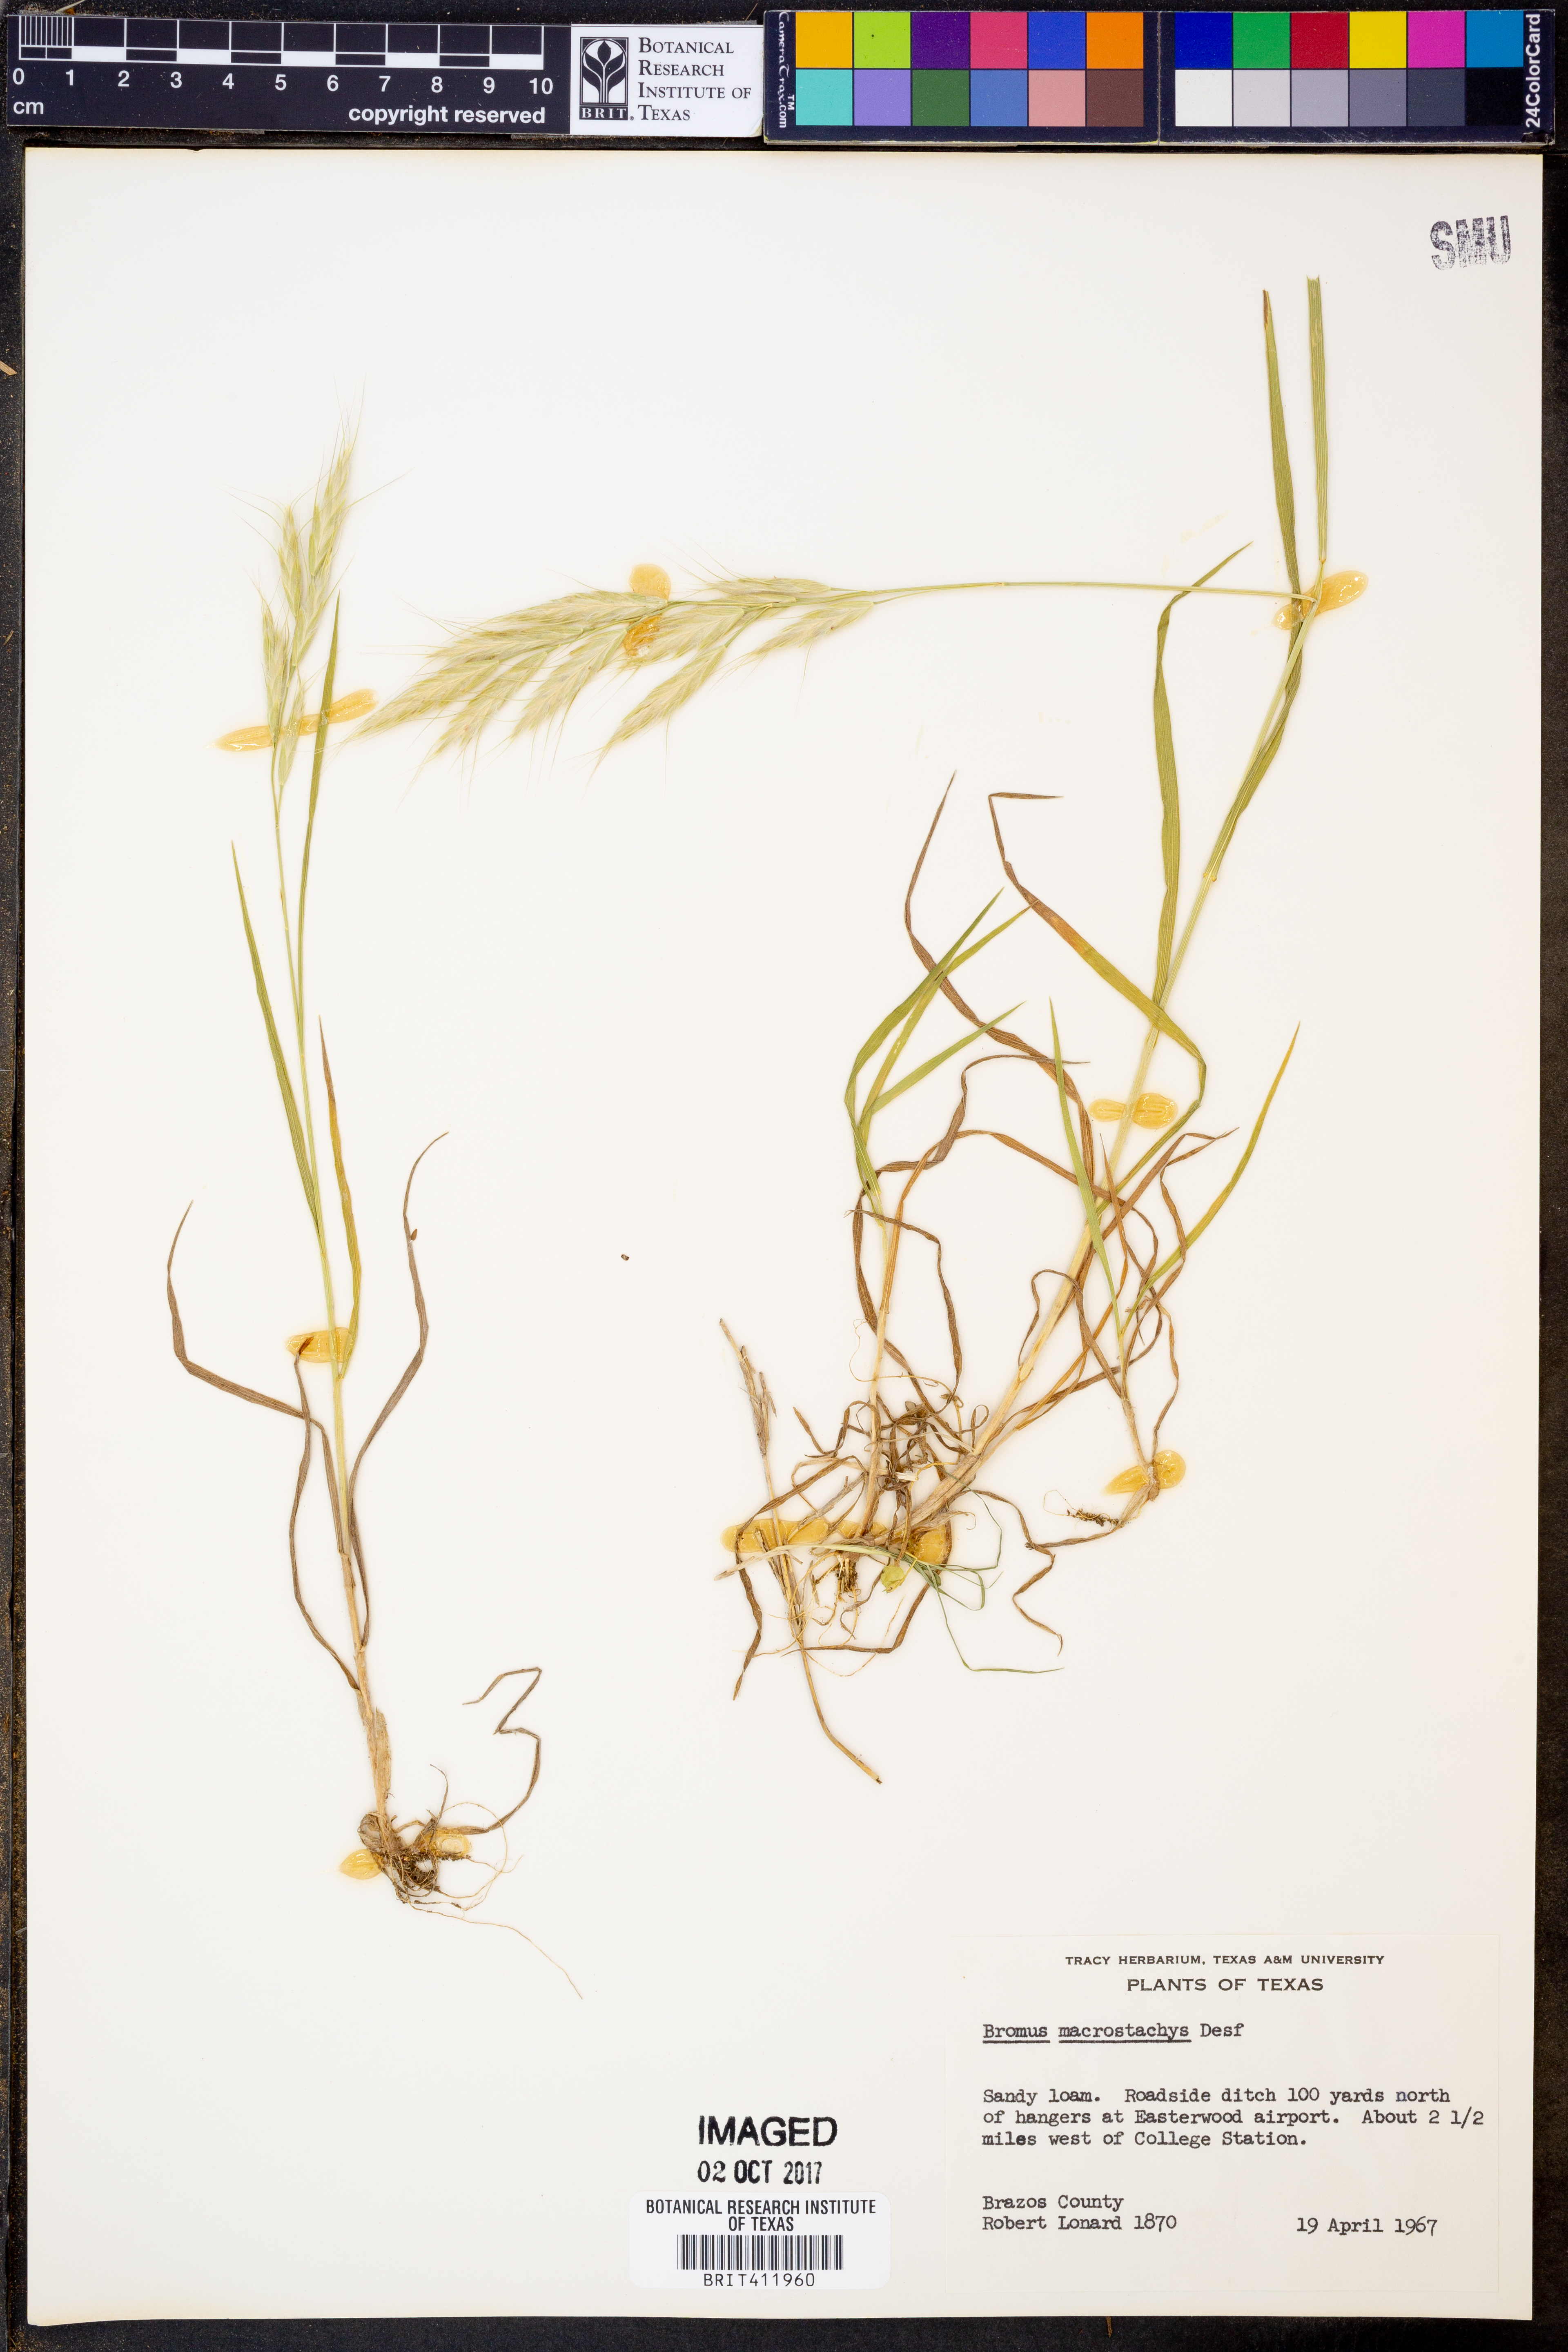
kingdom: Plantae
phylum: Tracheophyta
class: Liliopsida
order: Poales
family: Poaceae
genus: Bromus
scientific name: Bromus lanceolatus
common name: Mediterranean brome
